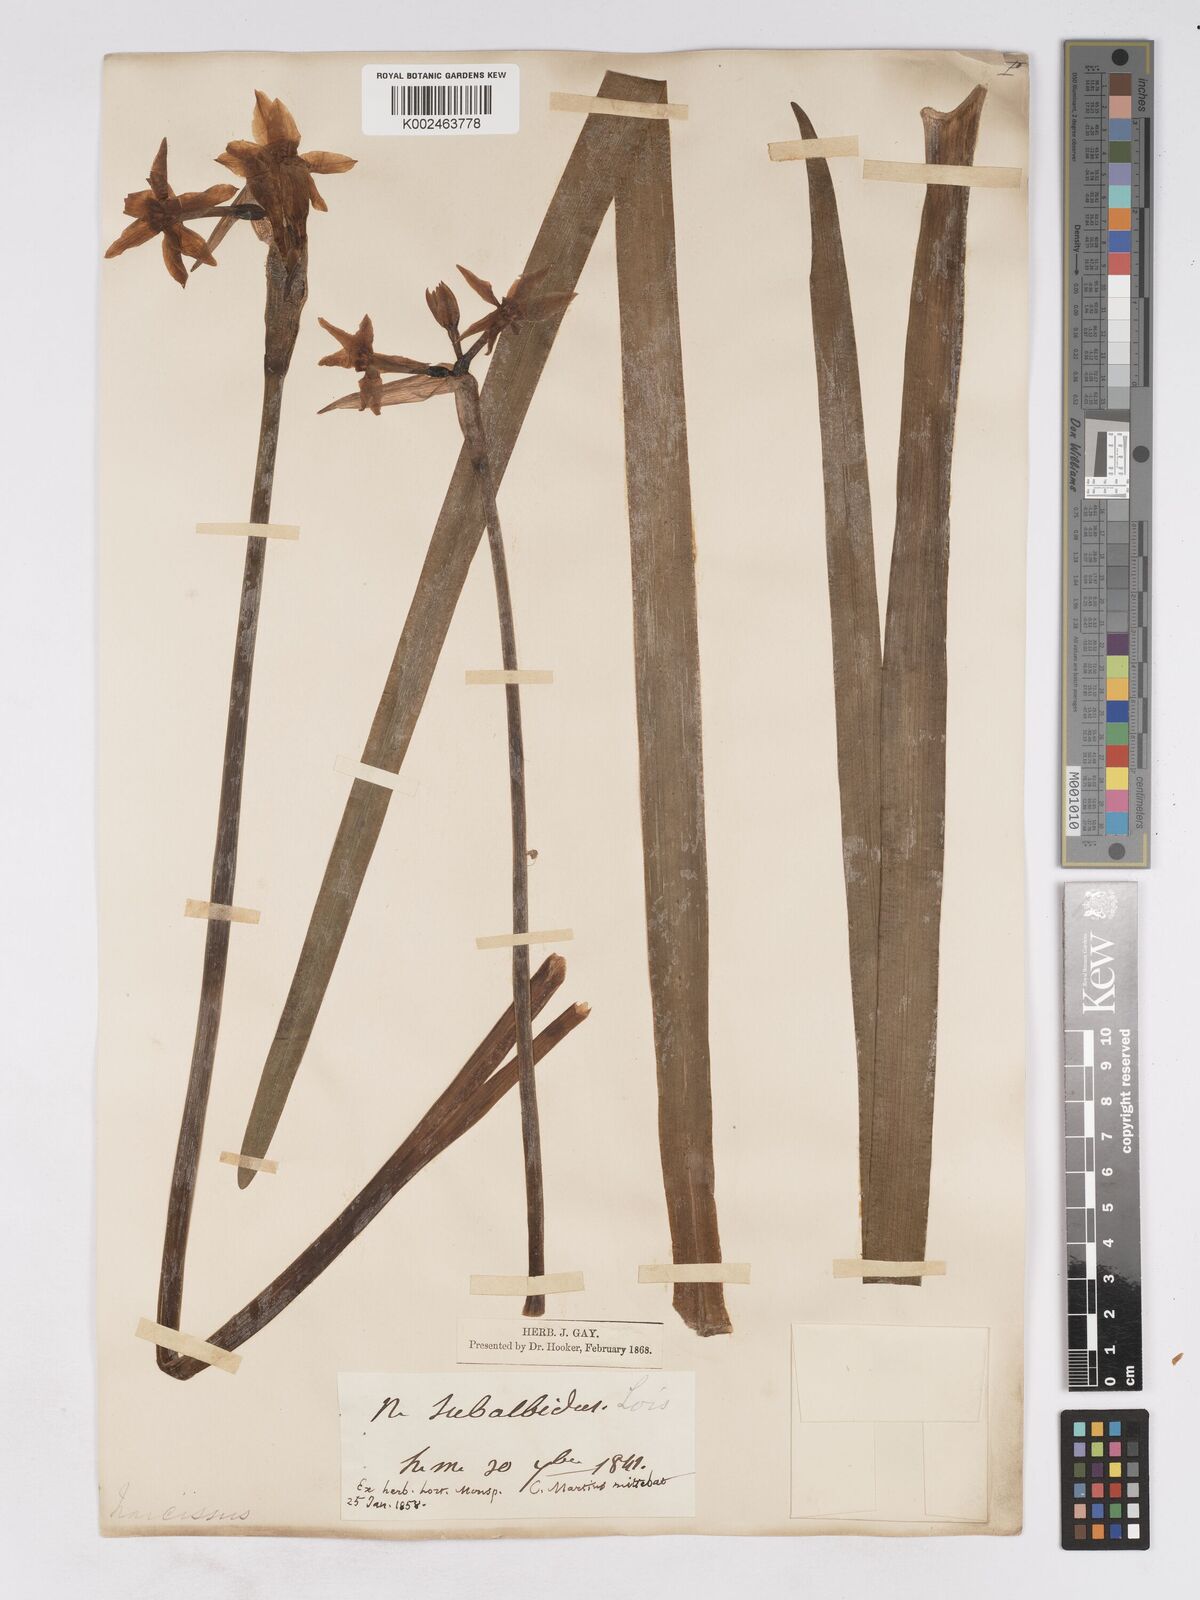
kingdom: Plantae
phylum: Tracheophyta
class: Liliopsida
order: Asparagales
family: Amaryllidaceae
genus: Narcissus
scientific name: Narcissus
